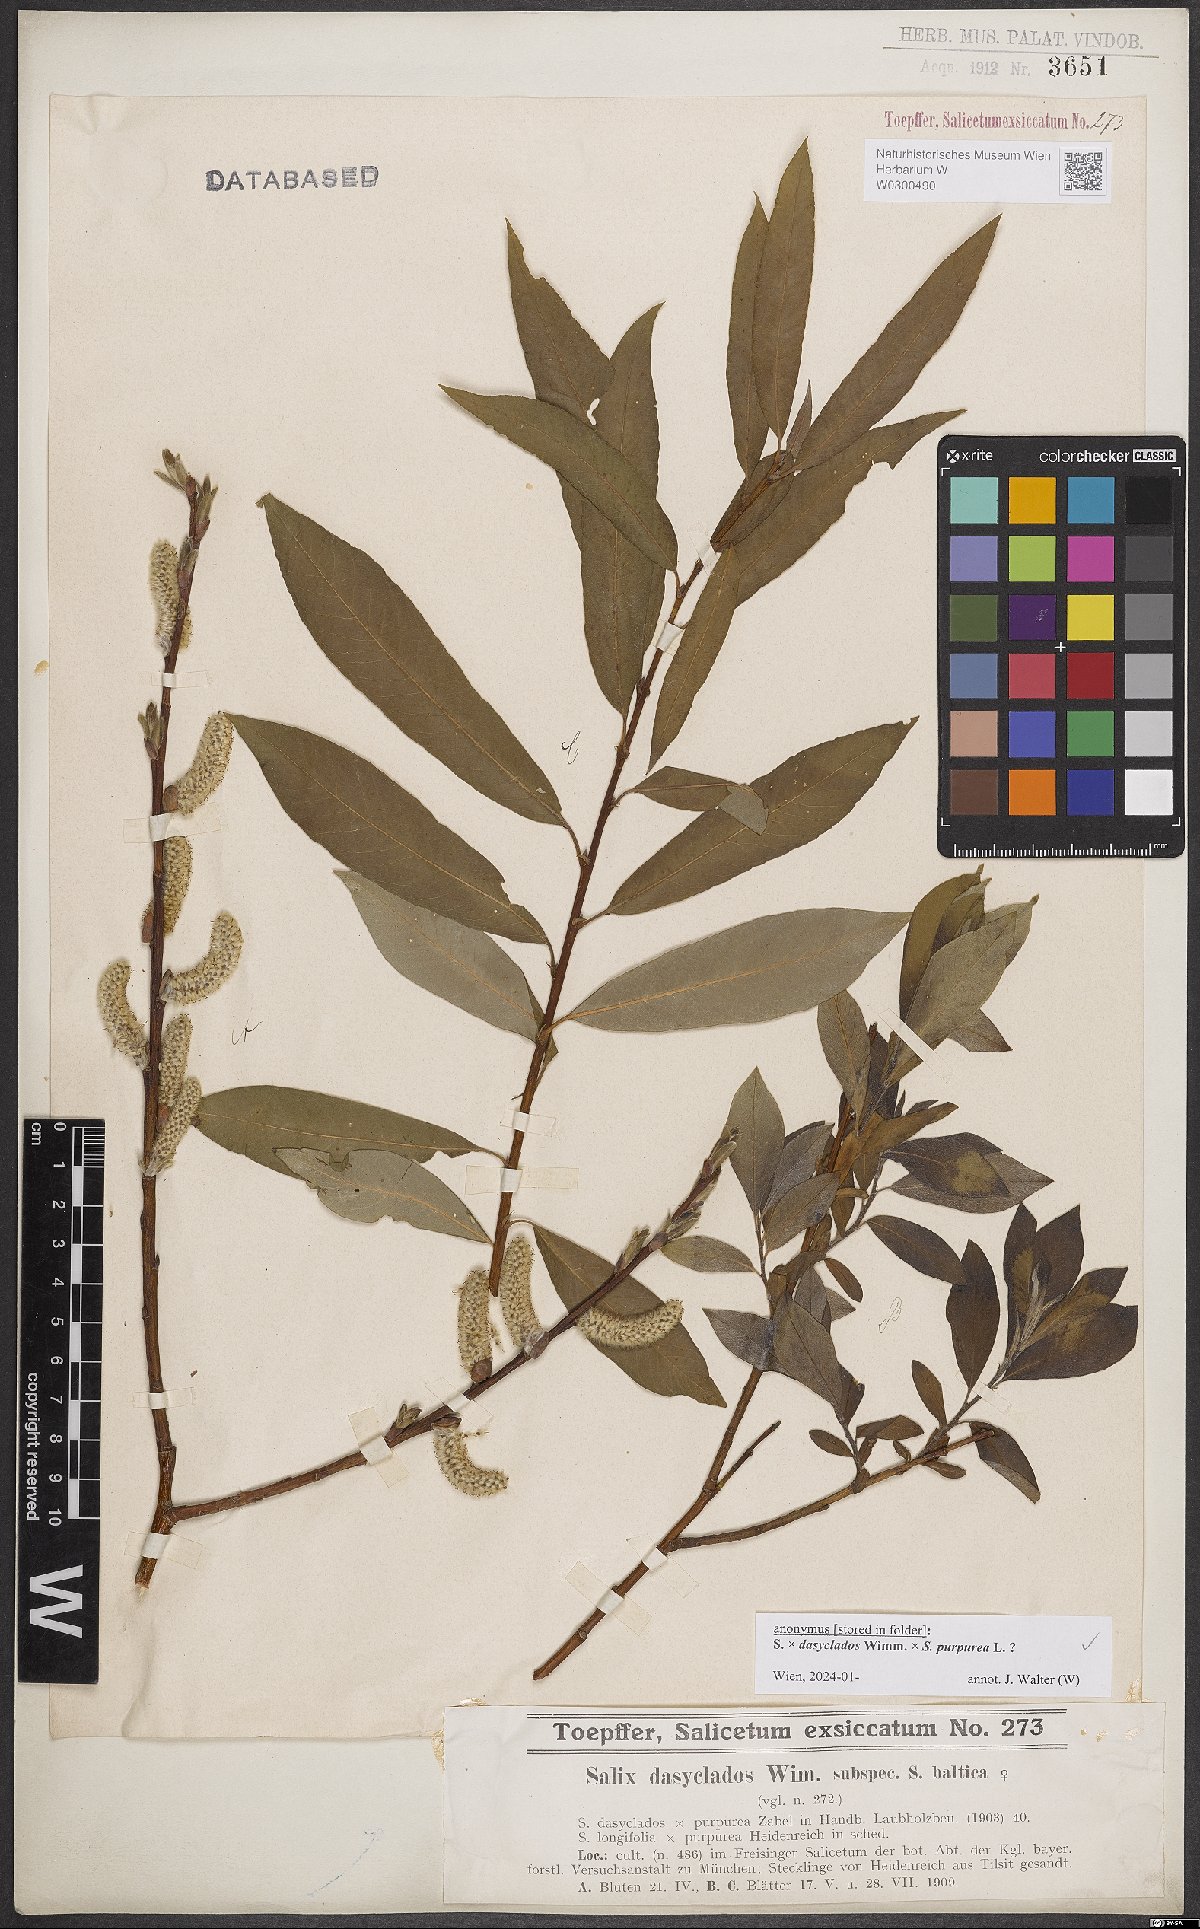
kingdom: Plantae
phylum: Tracheophyta
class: Magnoliopsida
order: Malpighiales
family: Salicaceae
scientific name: Salicaceae
